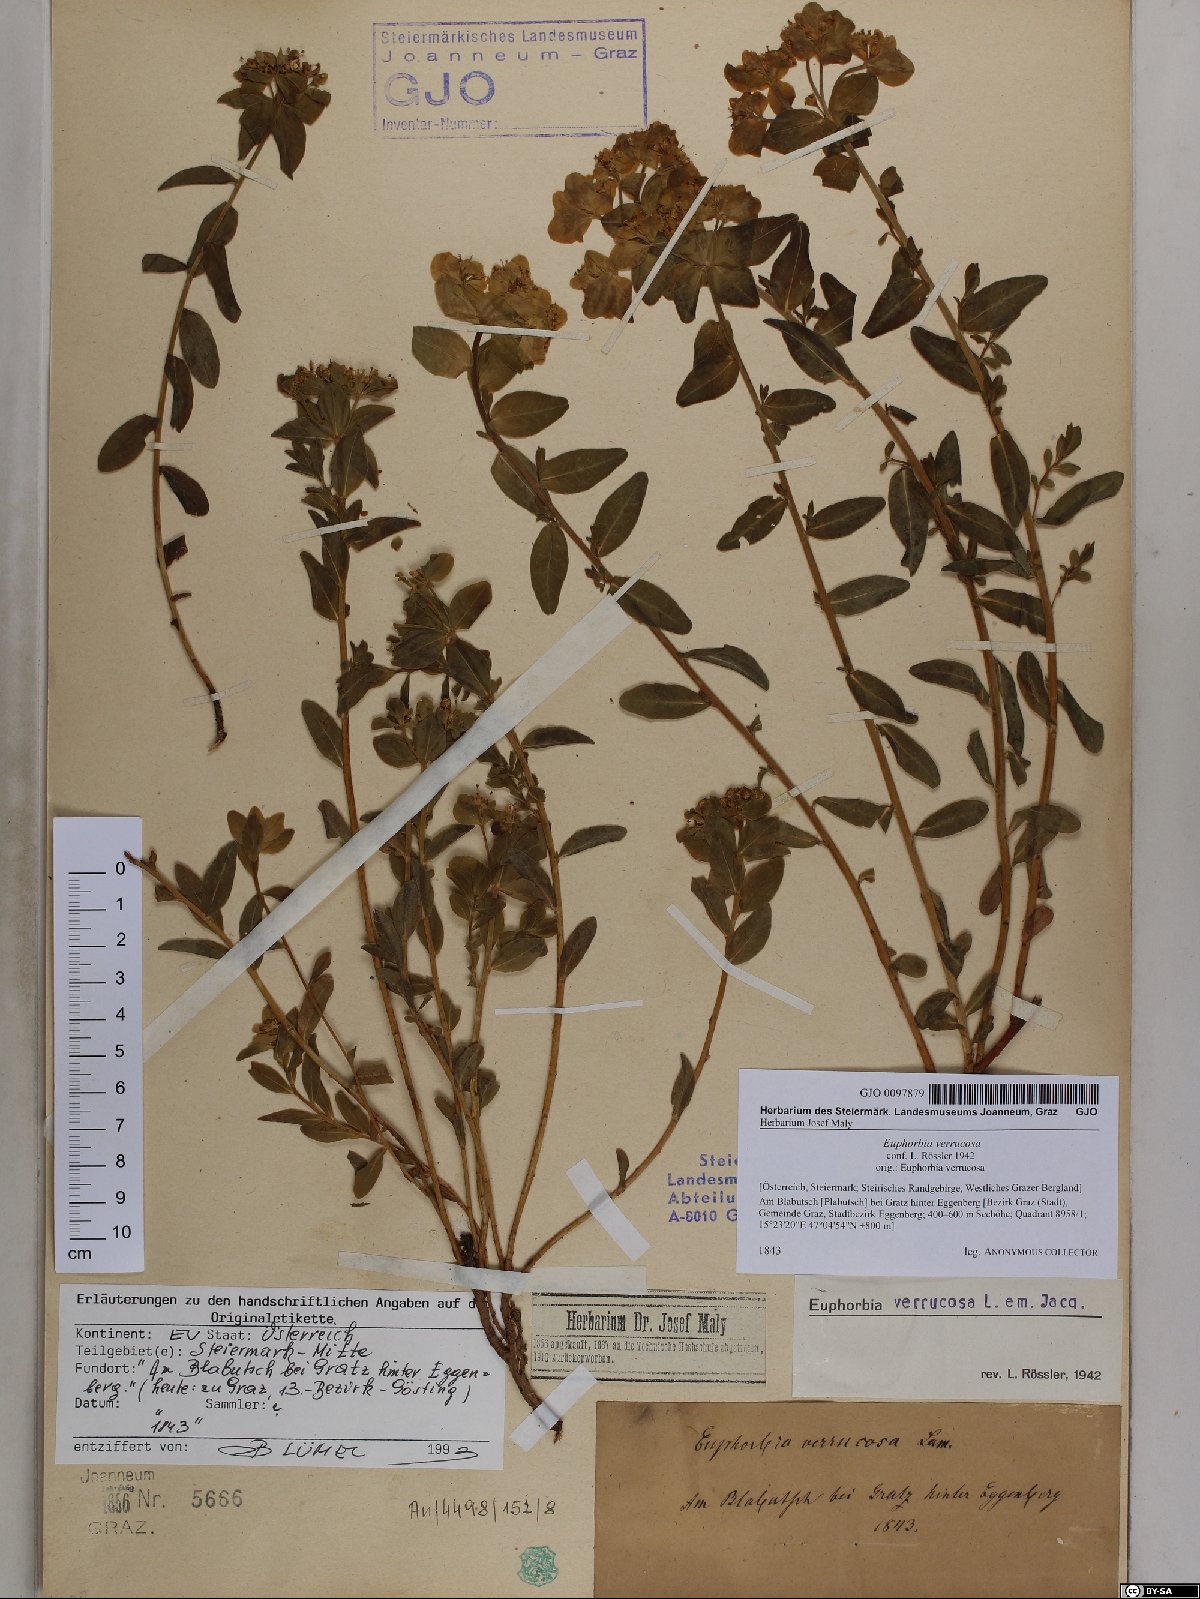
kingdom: Plantae
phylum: Tracheophyta
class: Magnoliopsida
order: Malpighiales
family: Euphorbiaceae
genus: Euphorbia
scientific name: Euphorbia verrucosa
